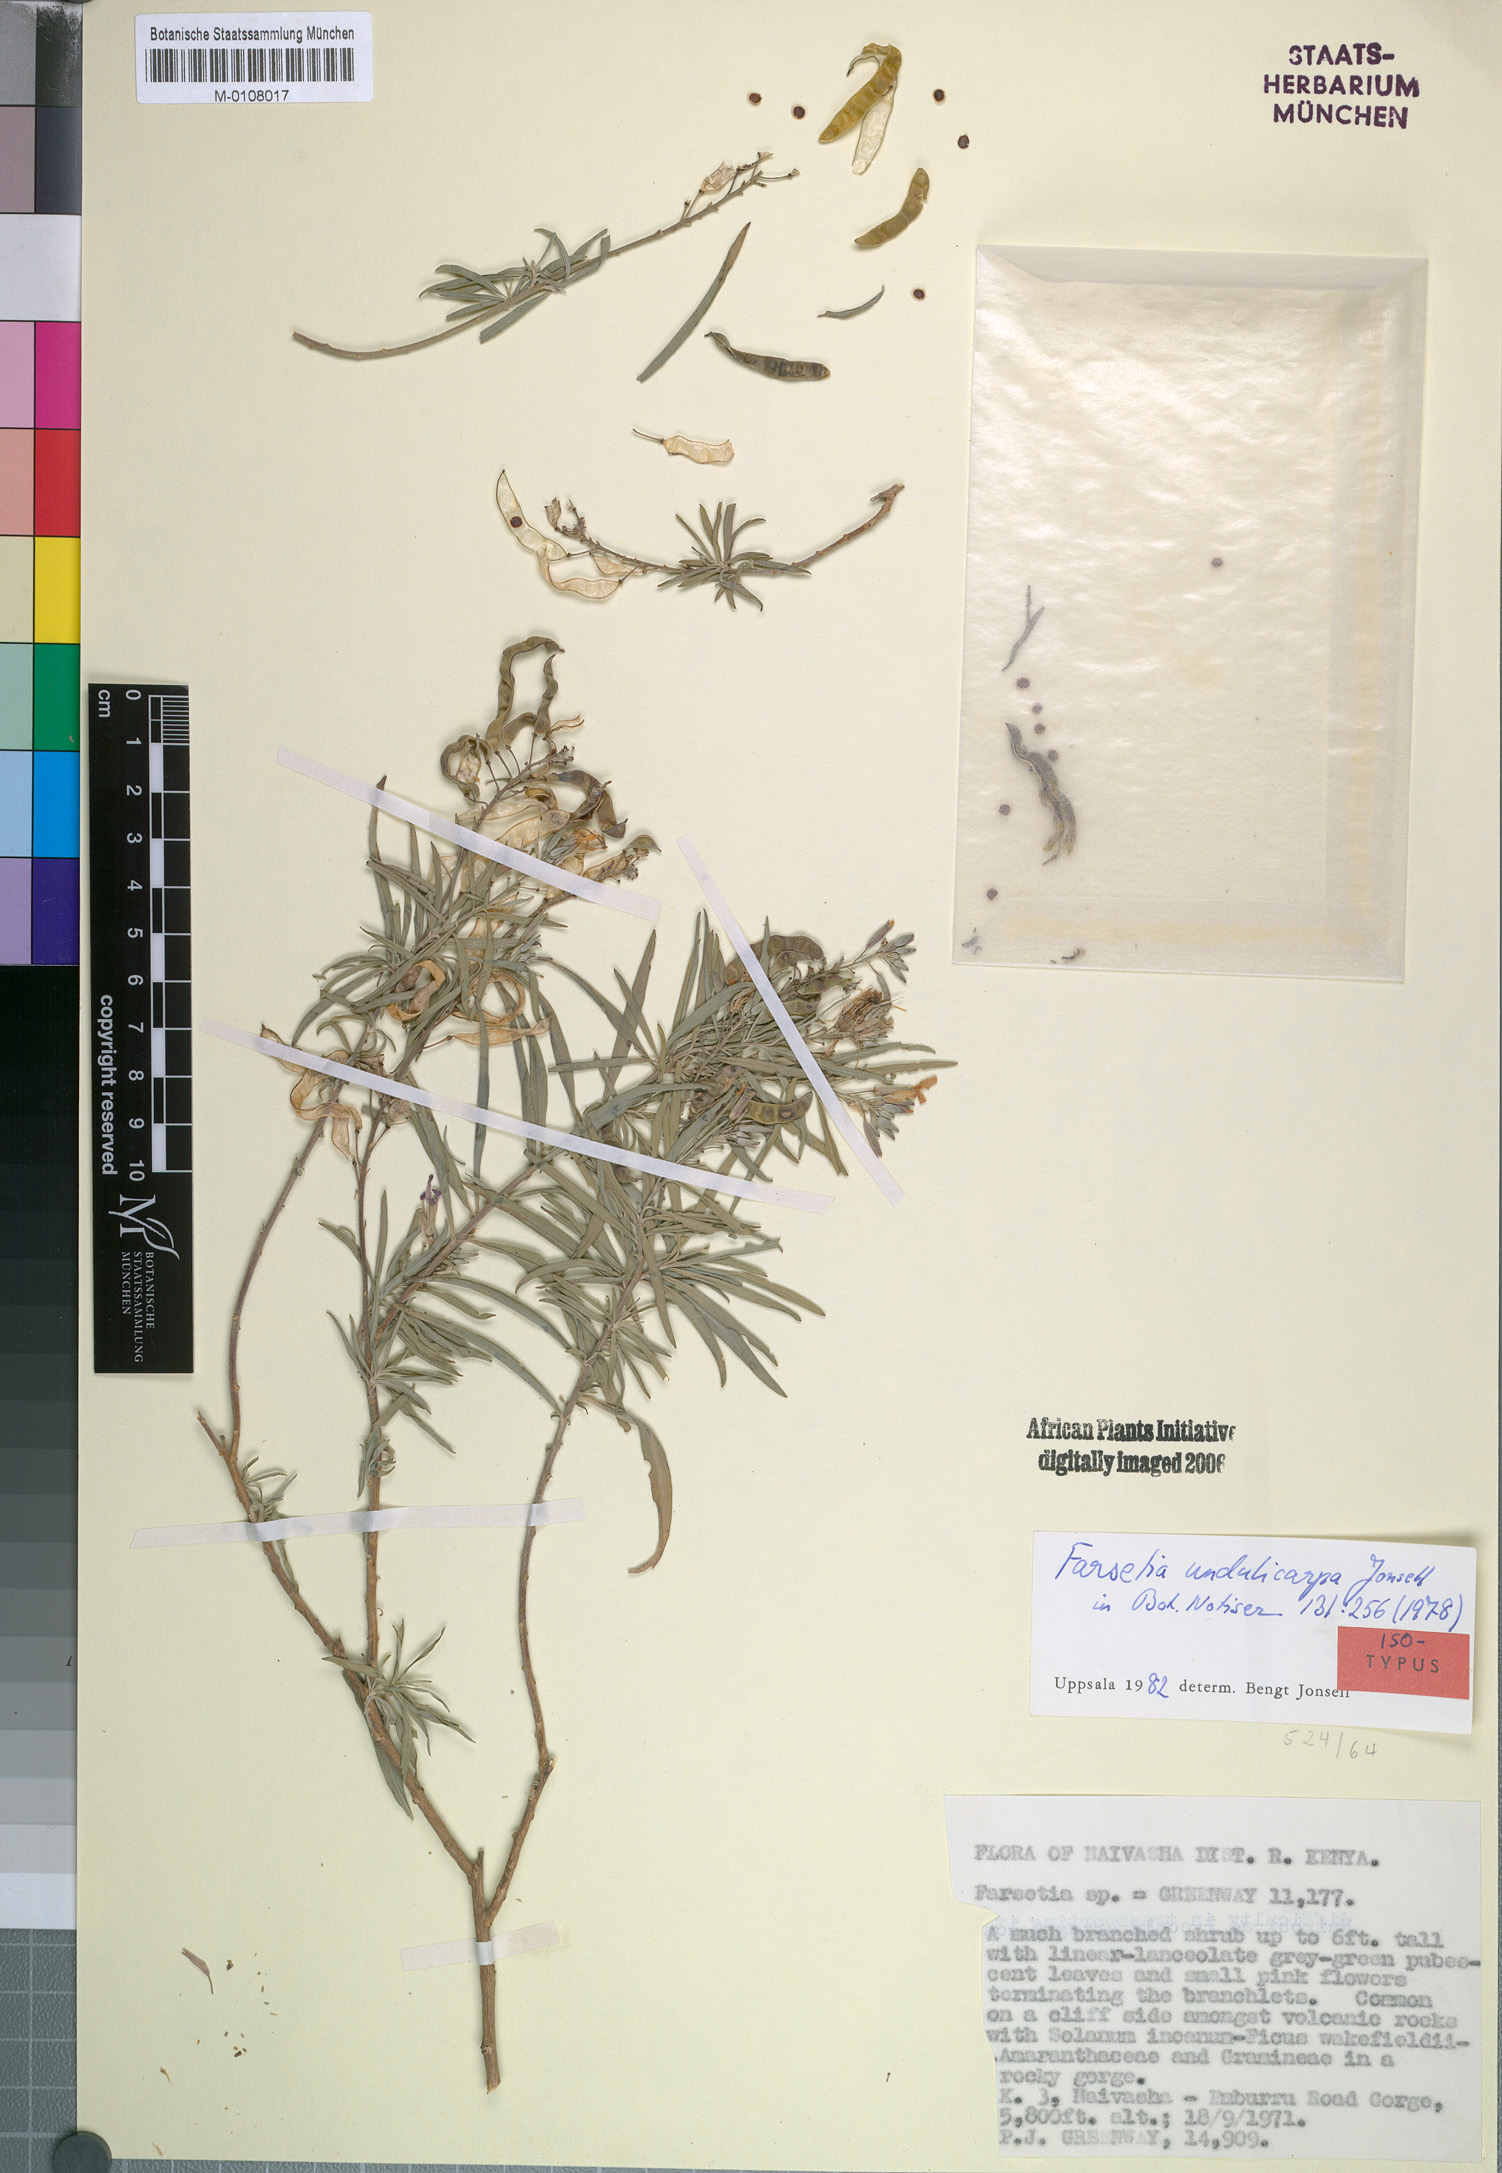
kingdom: Plantae
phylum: Tracheophyta
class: Magnoliopsida
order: Brassicales
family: Brassicaceae
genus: Farsetia
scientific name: Farsetia undulicarpa
